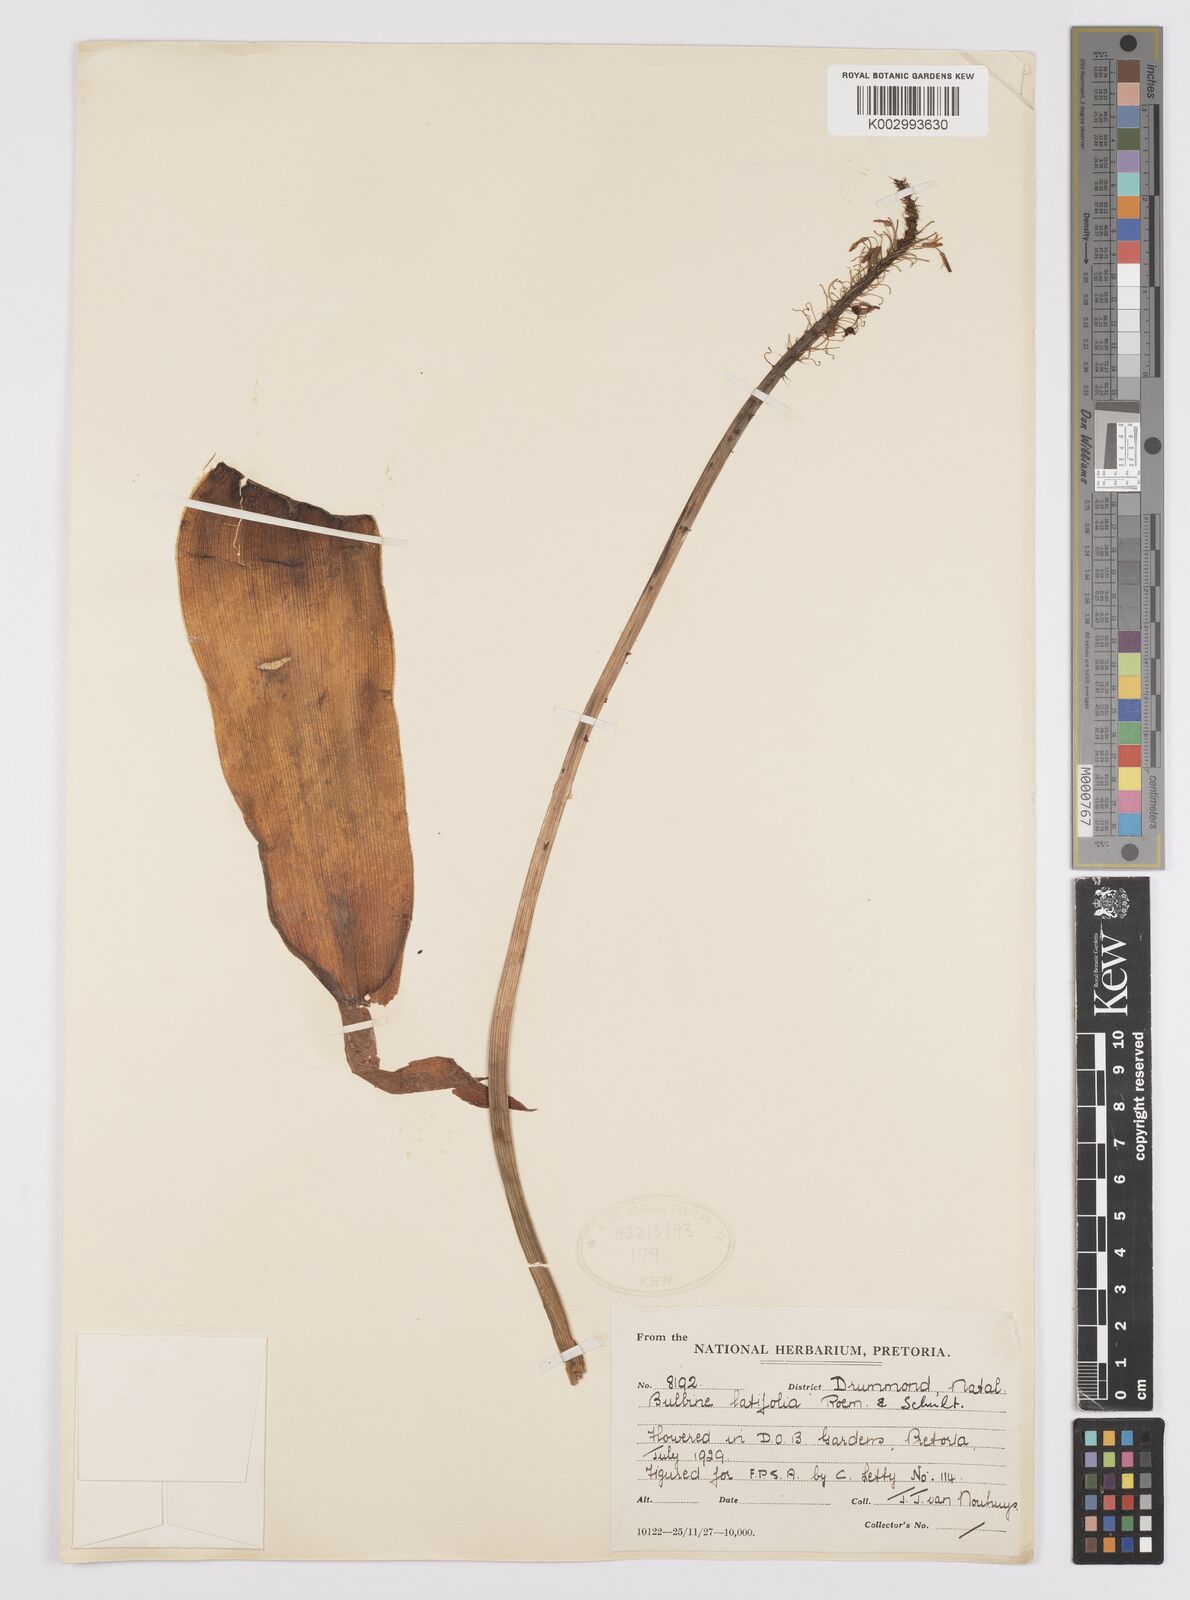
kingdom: Plantae
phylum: Tracheophyta
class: Liliopsida
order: Asparagales
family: Asphodelaceae
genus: Bulbine
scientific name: Bulbine latifolia
